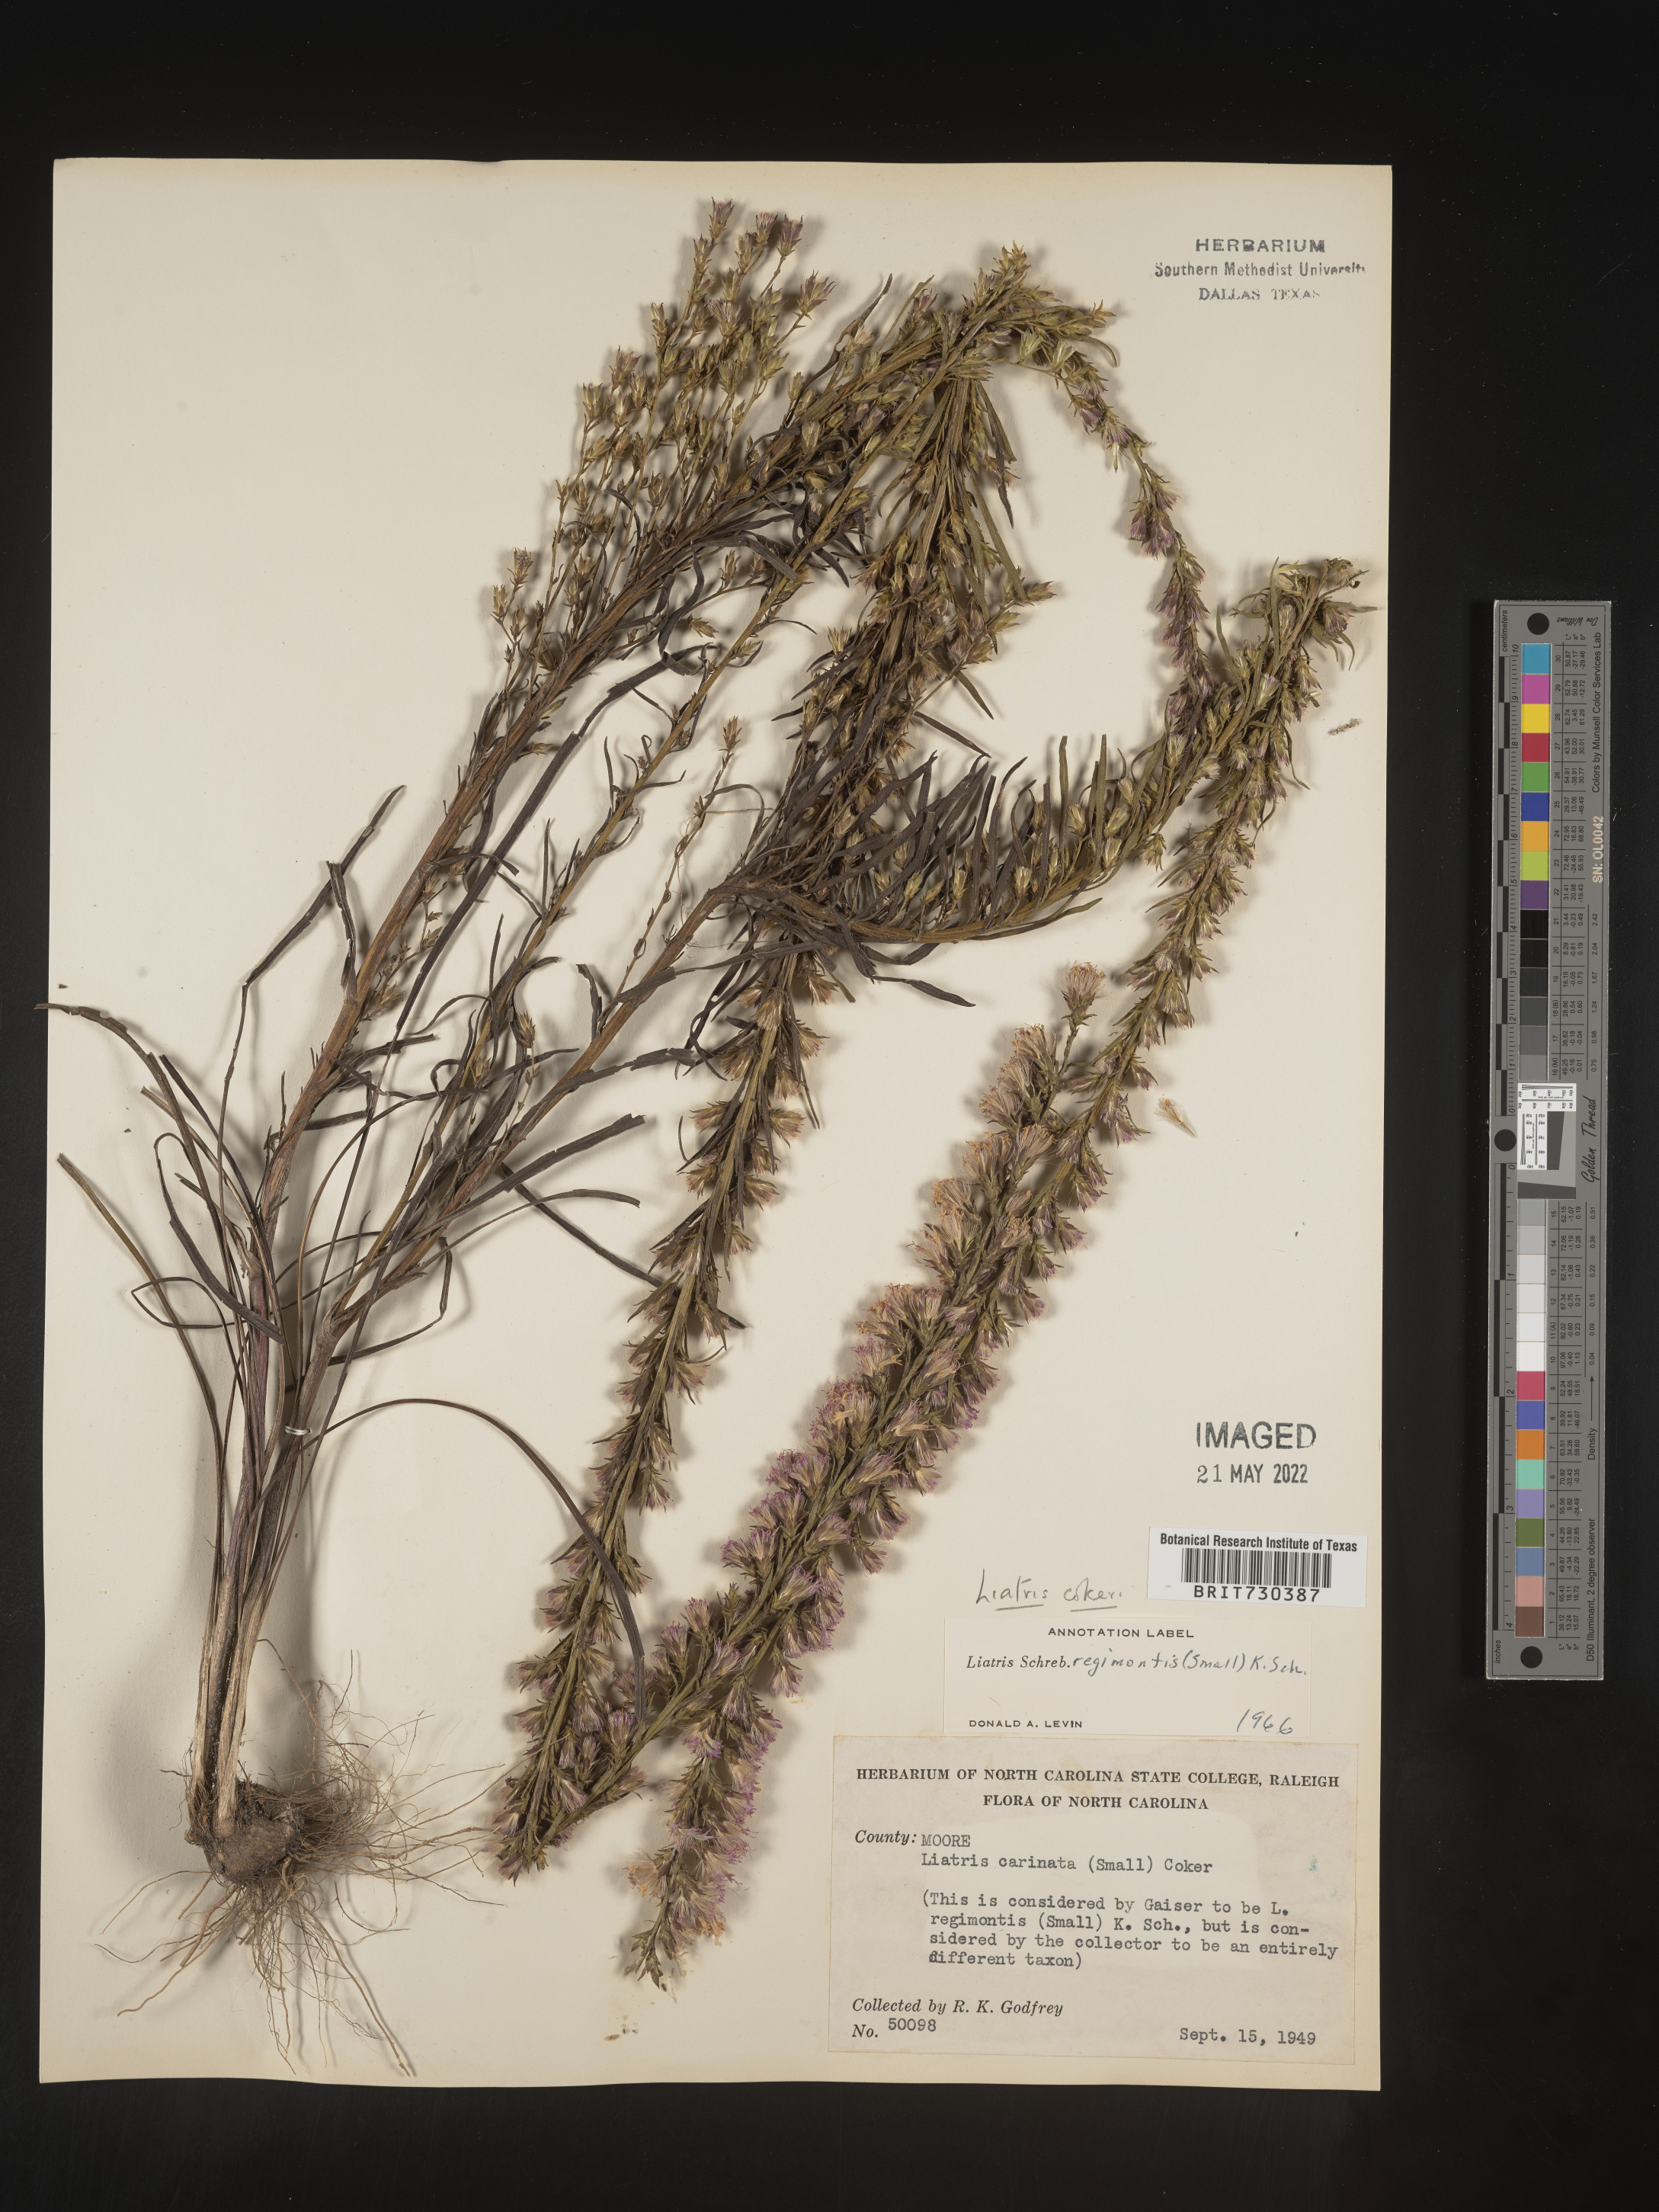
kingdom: Plantae
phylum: Tracheophyta
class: Magnoliopsida
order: Asterales
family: Asteraceae
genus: Liatris
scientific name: Liatris cokeri
